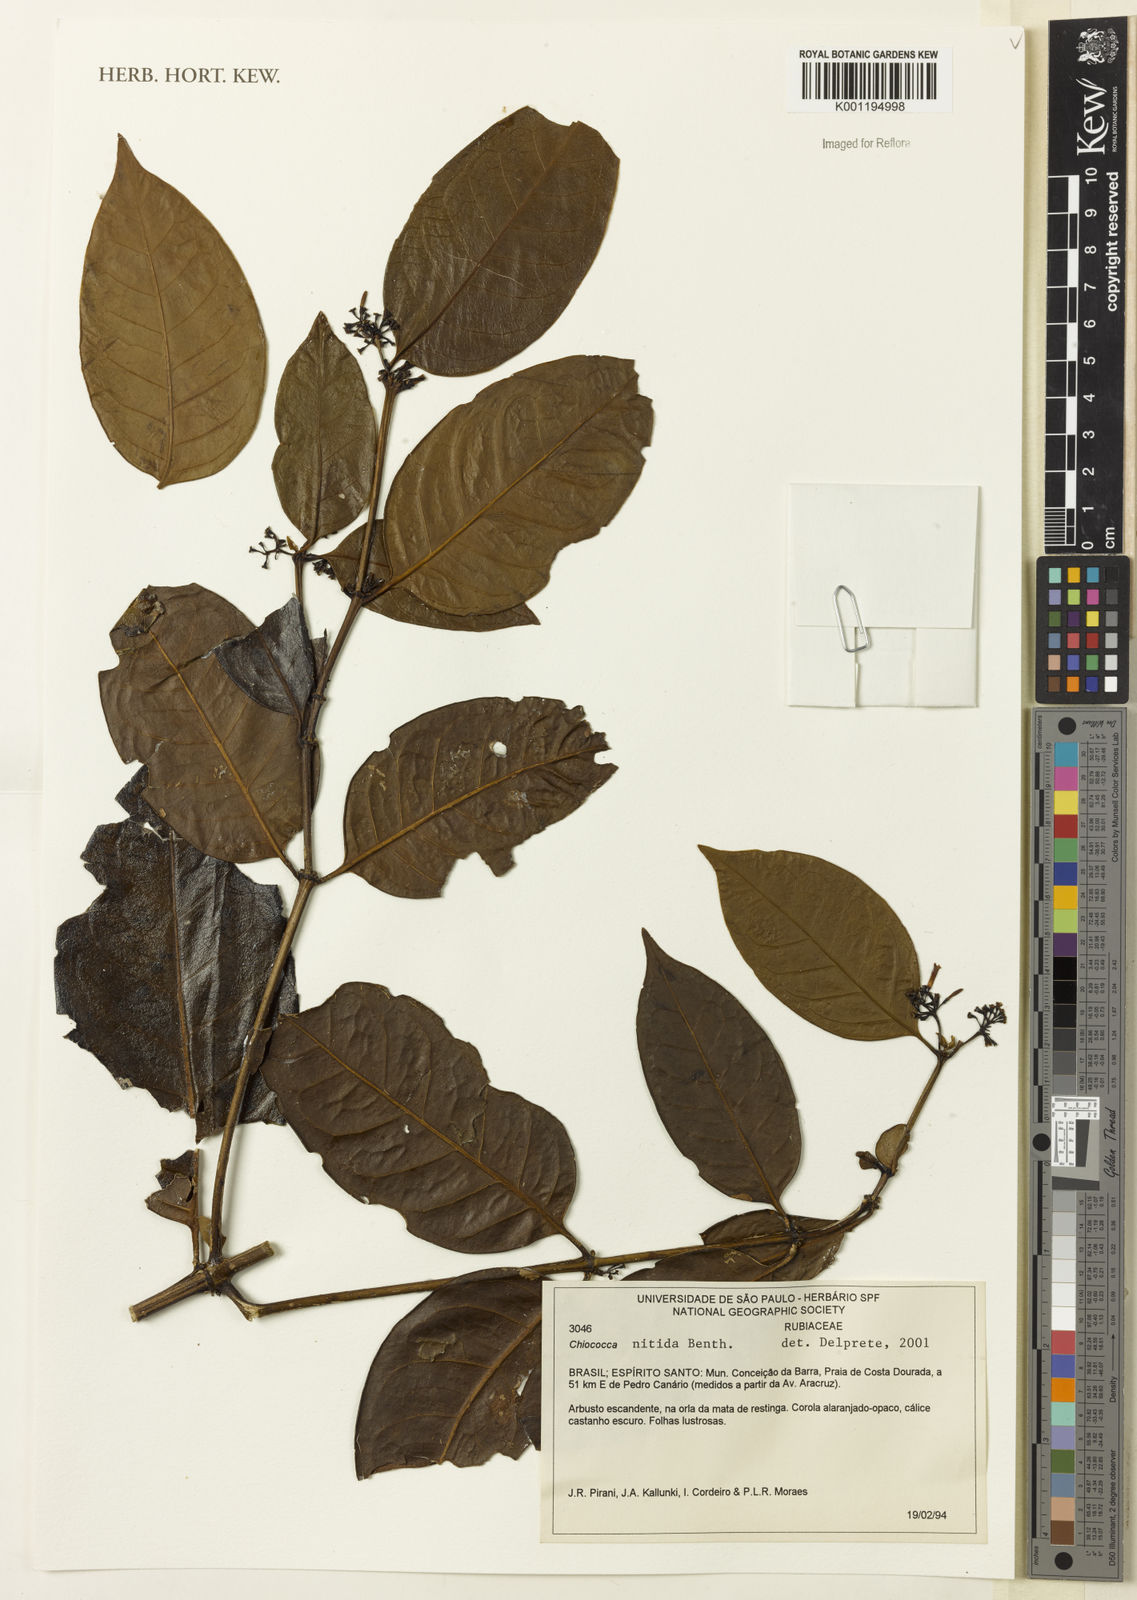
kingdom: Plantae
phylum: Tracheophyta
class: Magnoliopsida
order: Gentianales
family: Rubiaceae
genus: Chiococca
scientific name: Chiococca nitida
